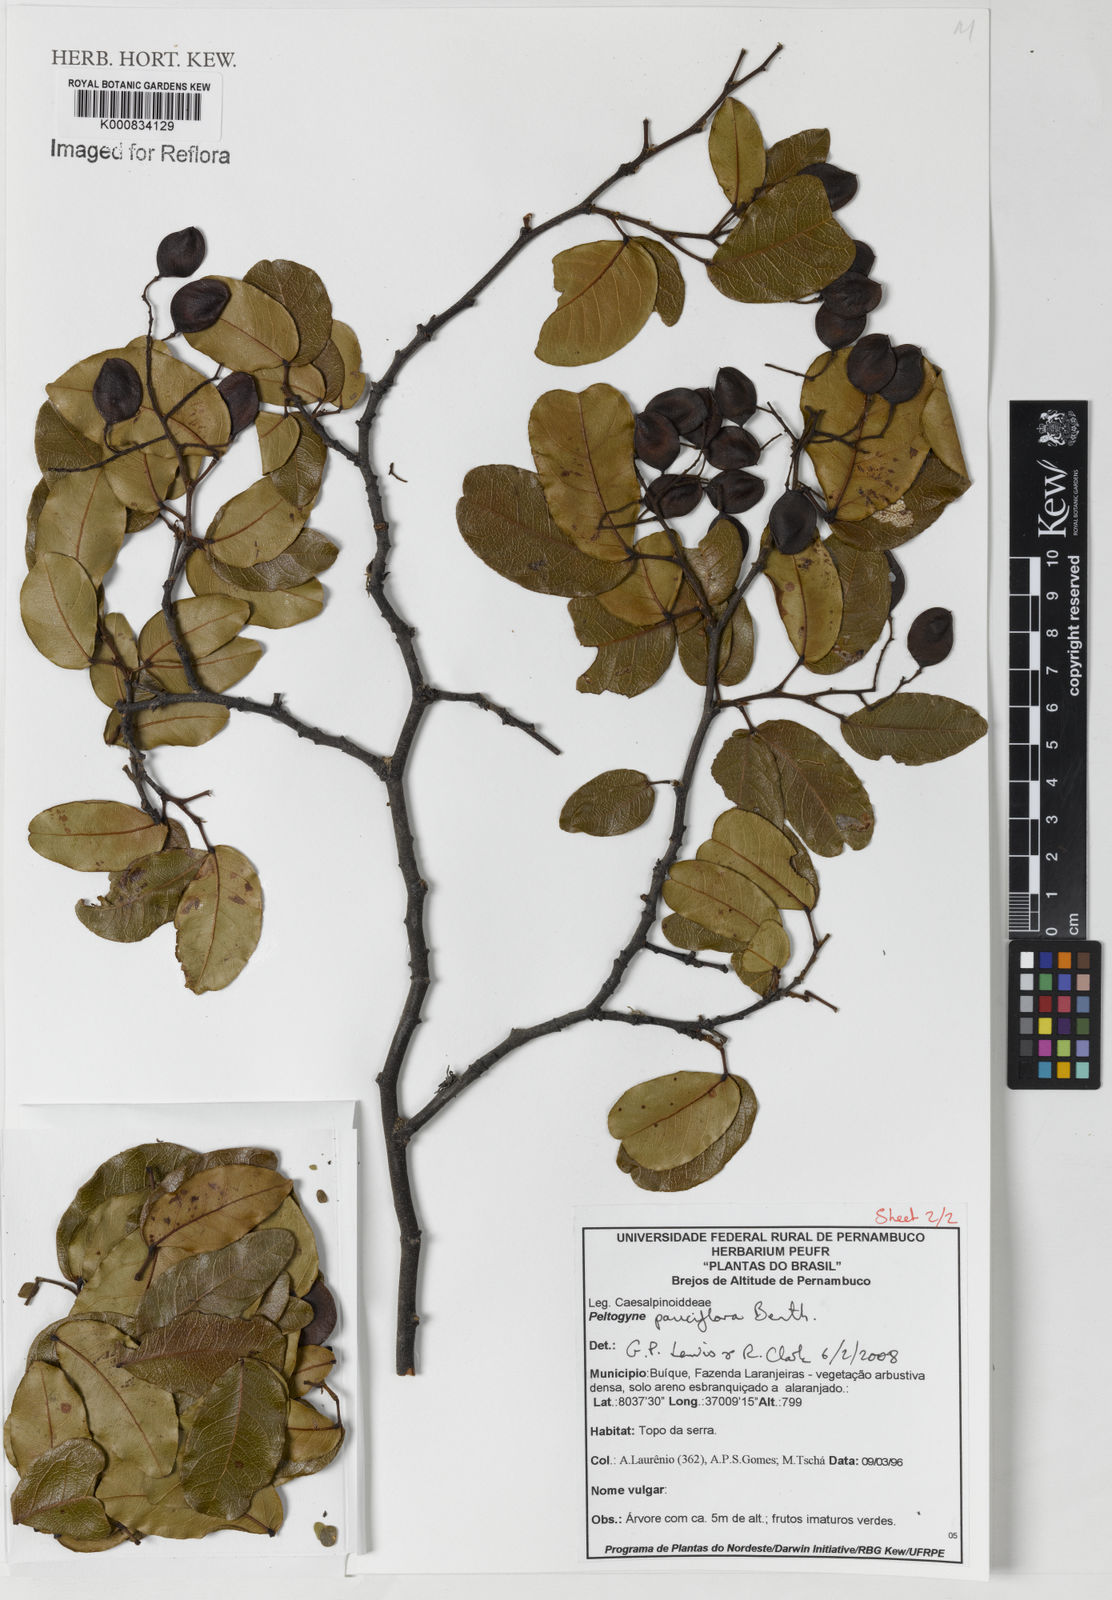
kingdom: Plantae
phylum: Tracheophyta
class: Magnoliopsida
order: Fabales
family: Fabaceae
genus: Peltogyne
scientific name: Peltogyne pauciflora
